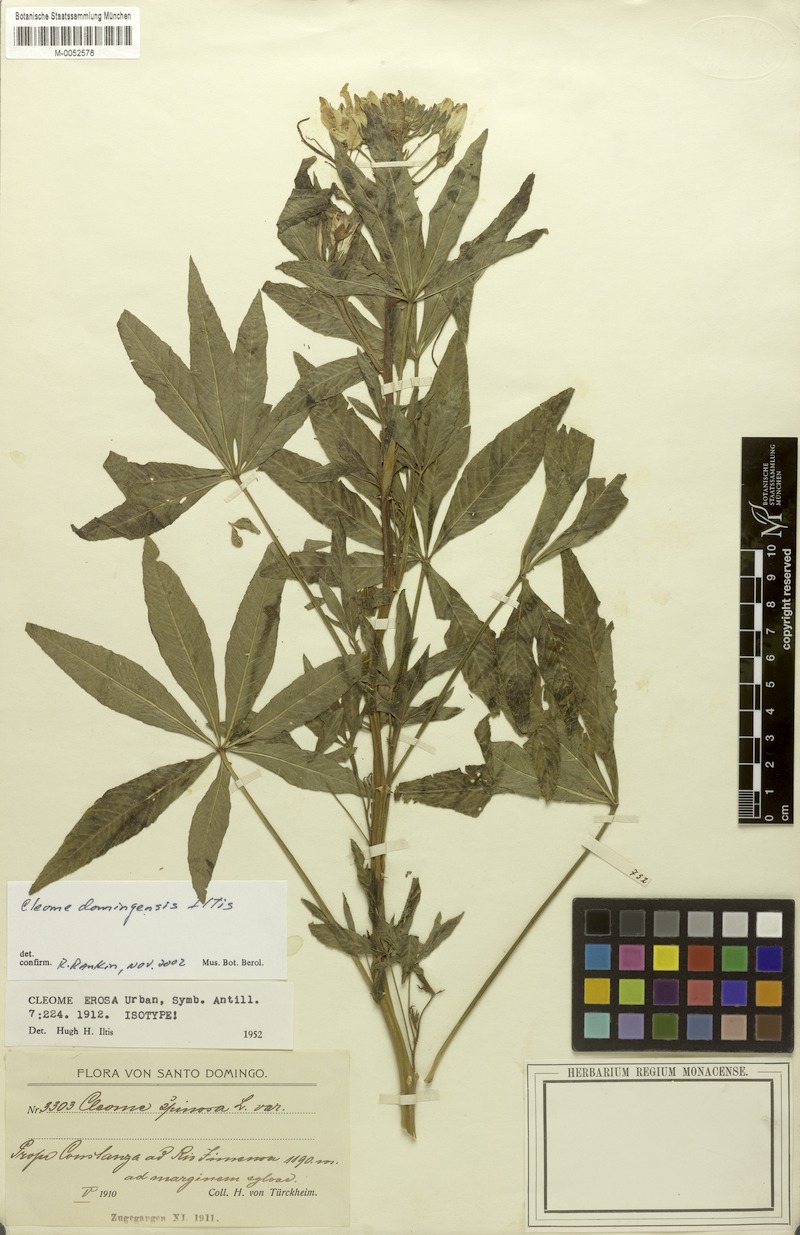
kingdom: Plantae
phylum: Tracheophyta
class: Magnoliopsida
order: Brassicales
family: Cleomaceae
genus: Tarenaya
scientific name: Tarenaya domingensis
